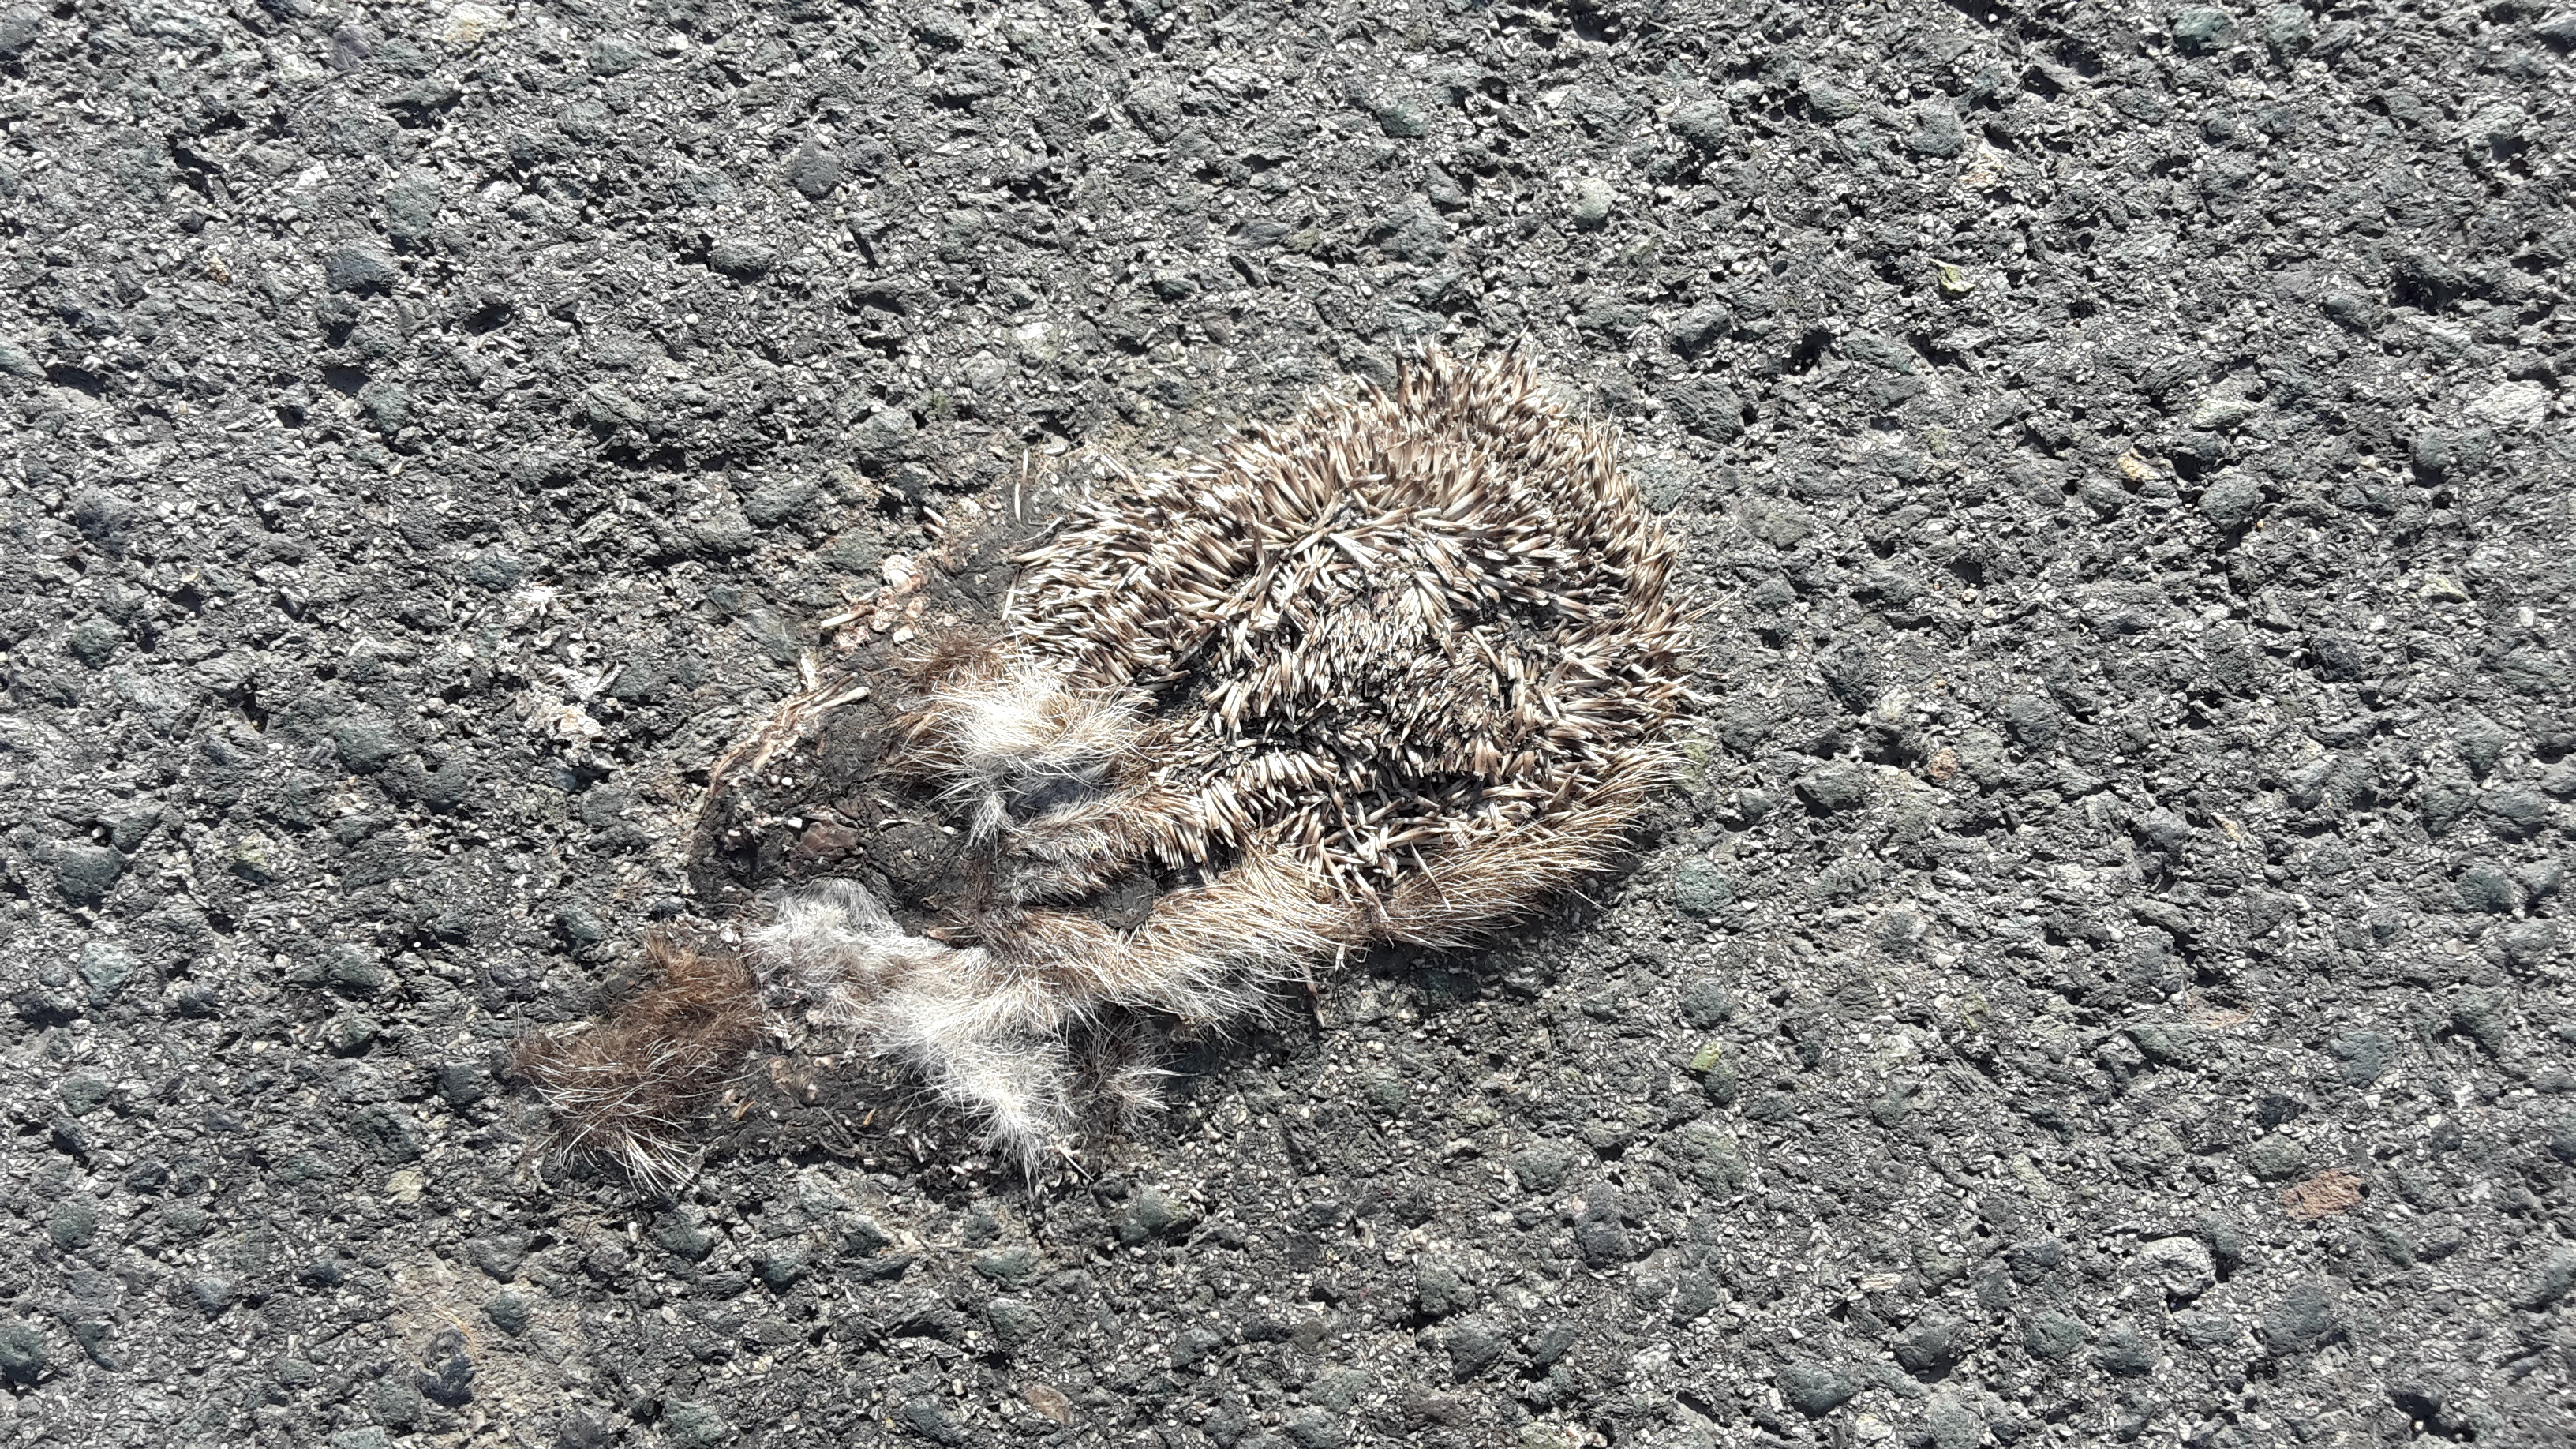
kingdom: Animalia
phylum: Chordata
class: Mammalia
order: Erinaceomorpha
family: Erinaceidae
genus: Erinaceus
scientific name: Erinaceus
